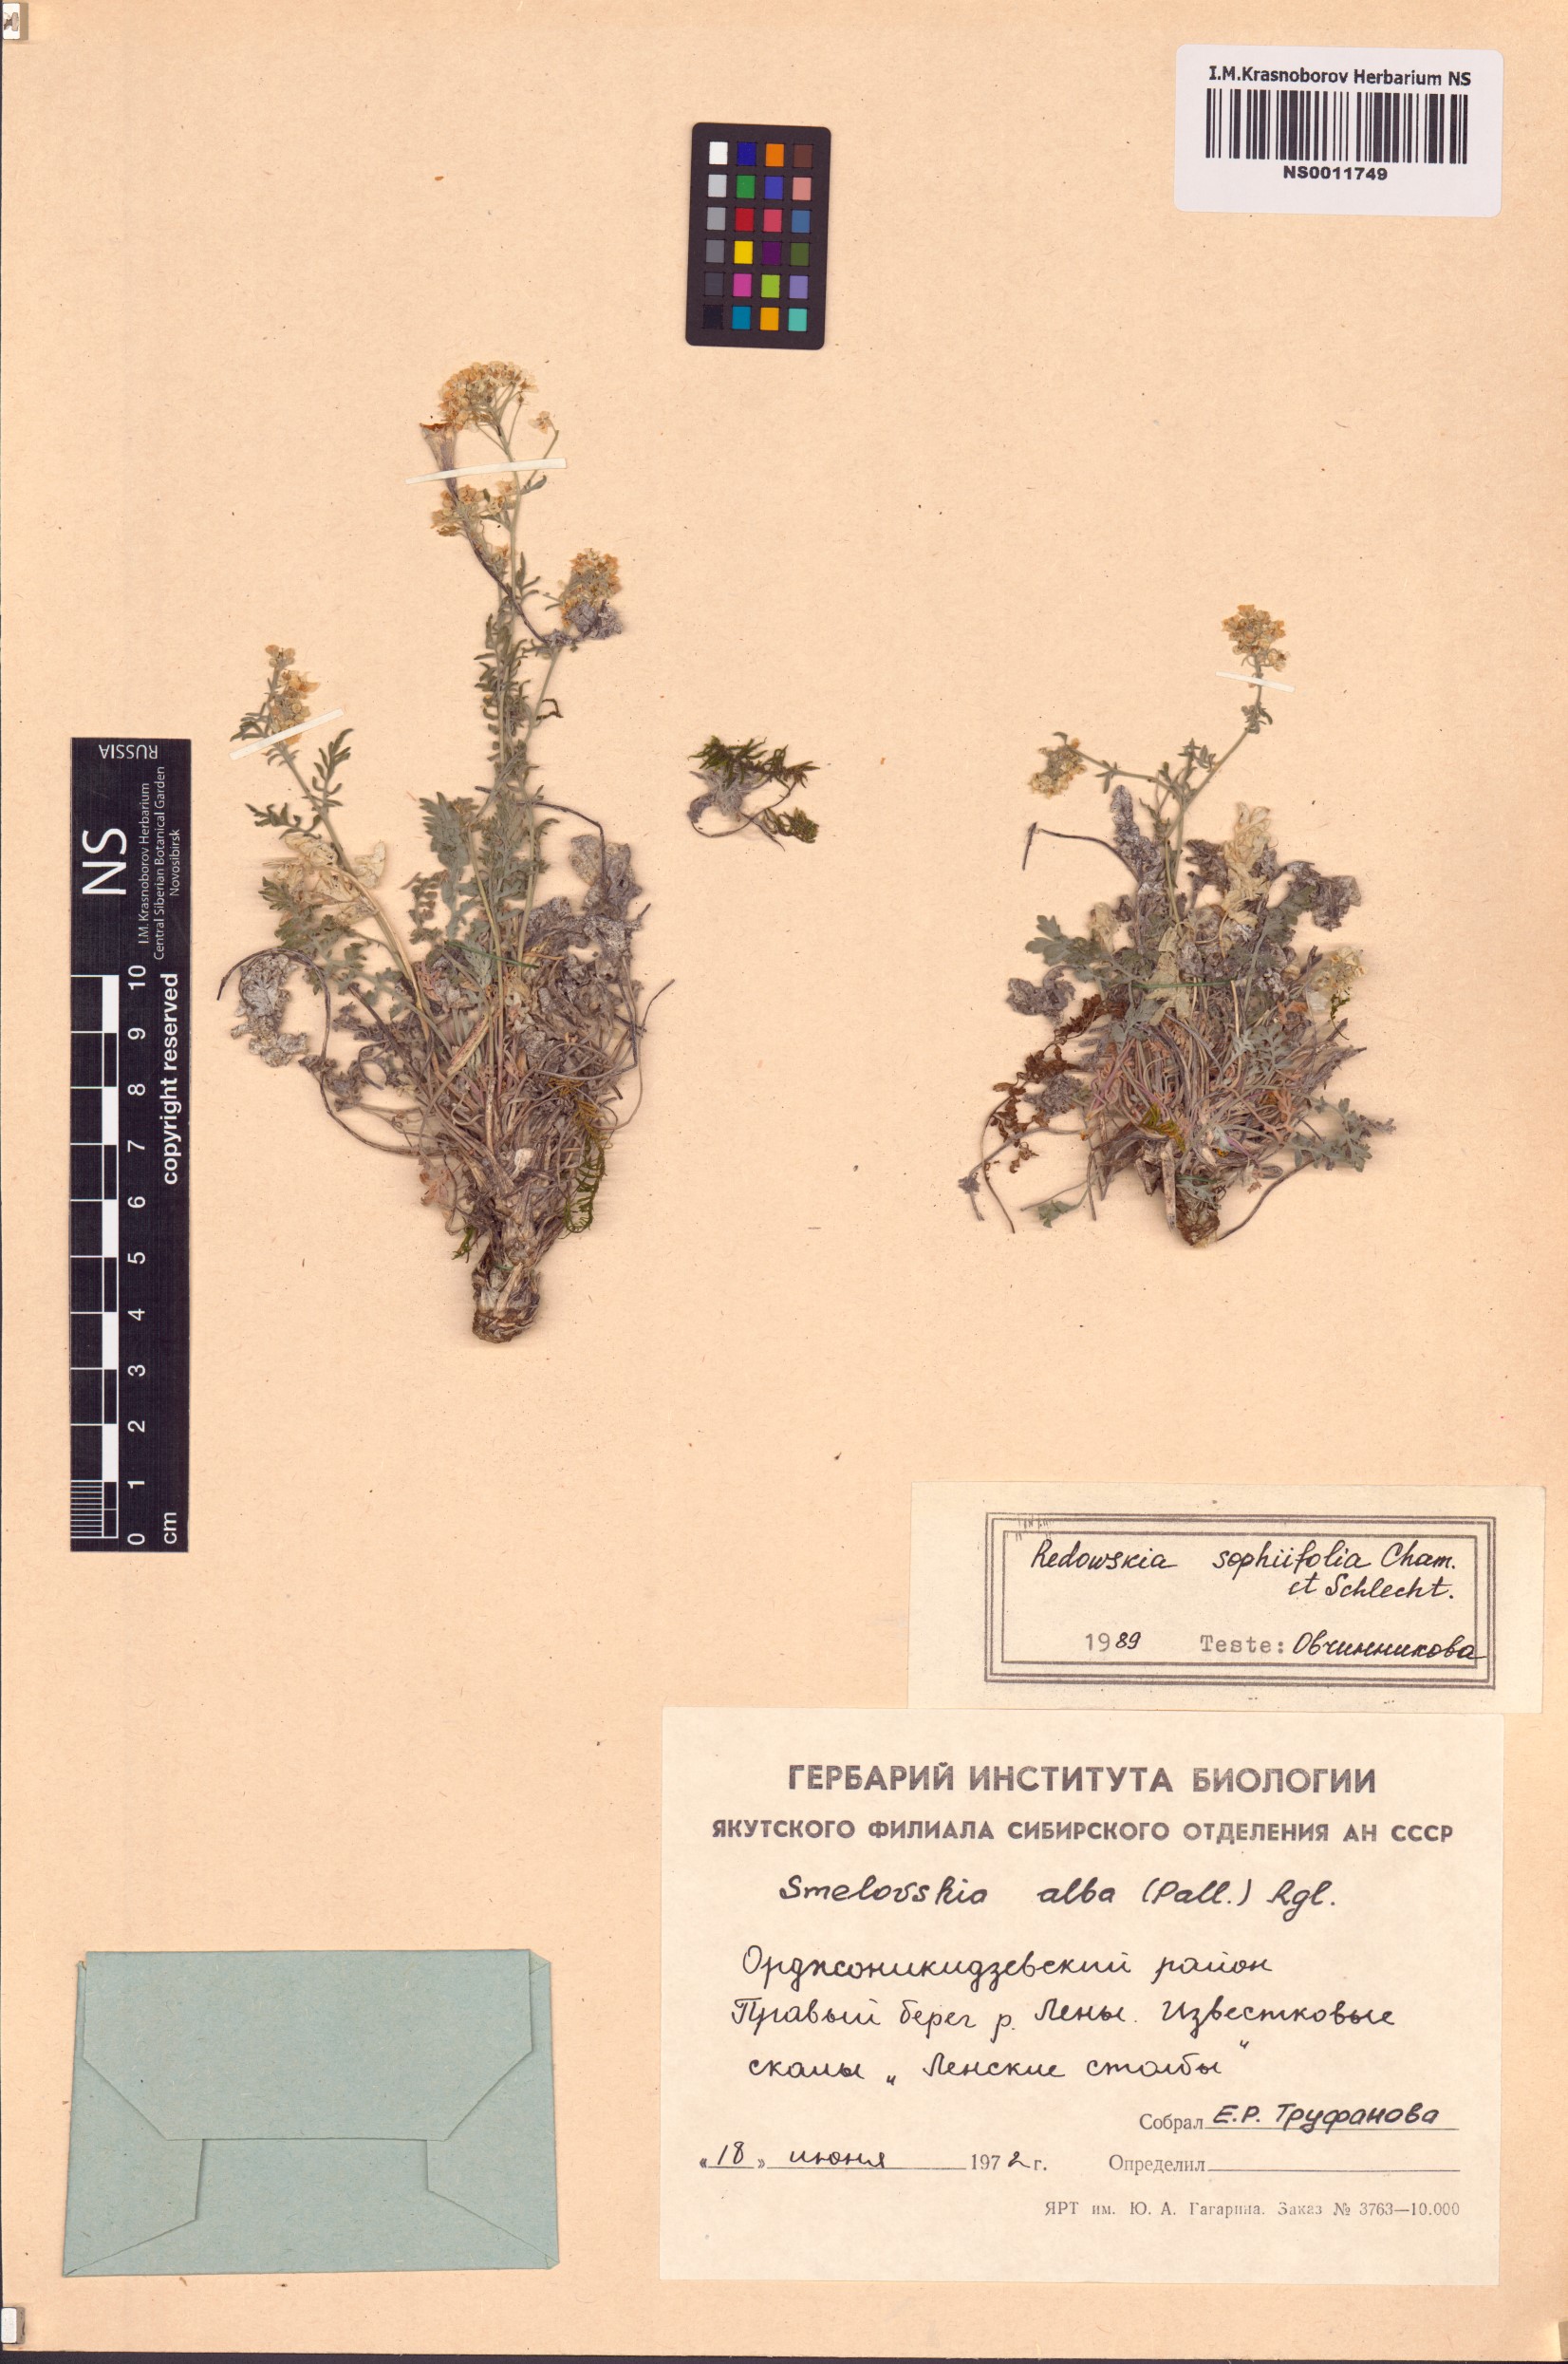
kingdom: Plantae
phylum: Tracheophyta
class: Magnoliopsida
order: Brassicales
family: Brassicaceae
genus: Smelowskia
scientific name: Smelowskia sophiifolia
